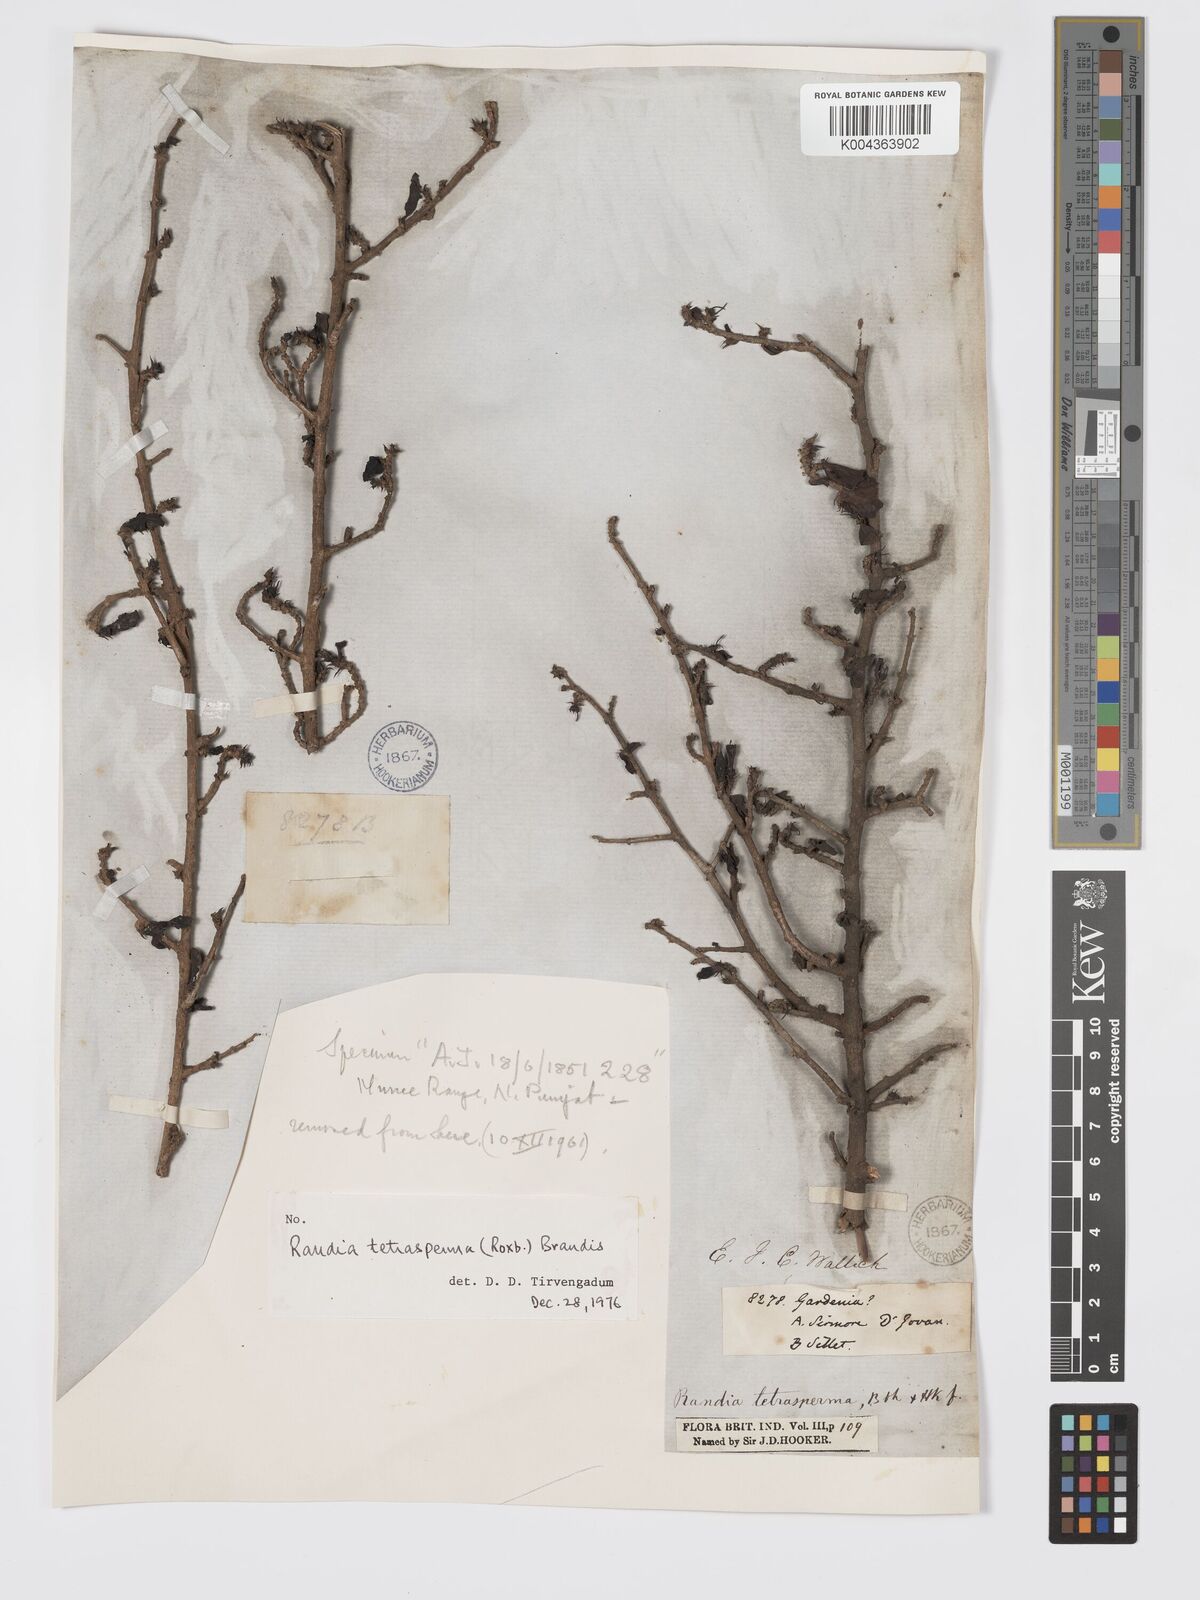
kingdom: Plantae
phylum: Tracheophyta
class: Magnoliopsida
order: Gentianales
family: Rubiaceae
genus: Himalrandia
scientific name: Himalrandia tetrasperma
